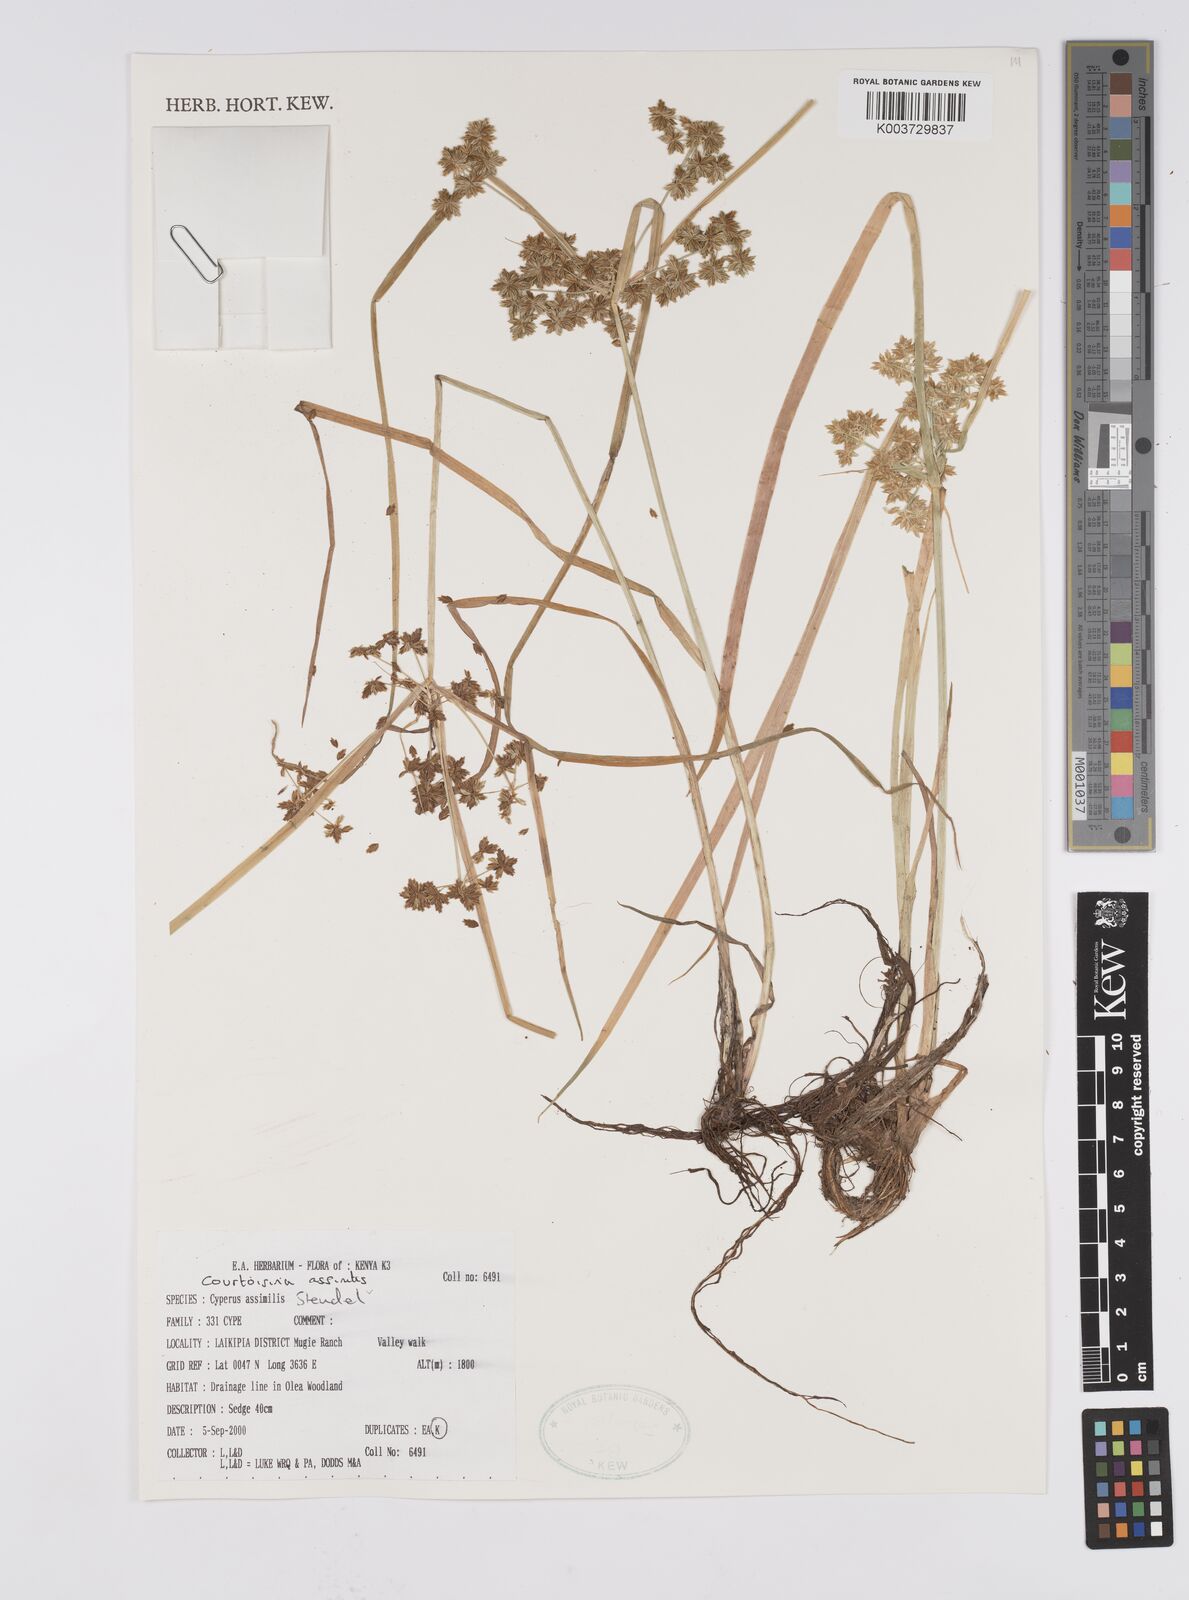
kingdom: Plantae
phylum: Tracheophyta
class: Liliopsida
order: Poales
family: Cyperaceae
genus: Cyperus
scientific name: Cyperus assimilis
